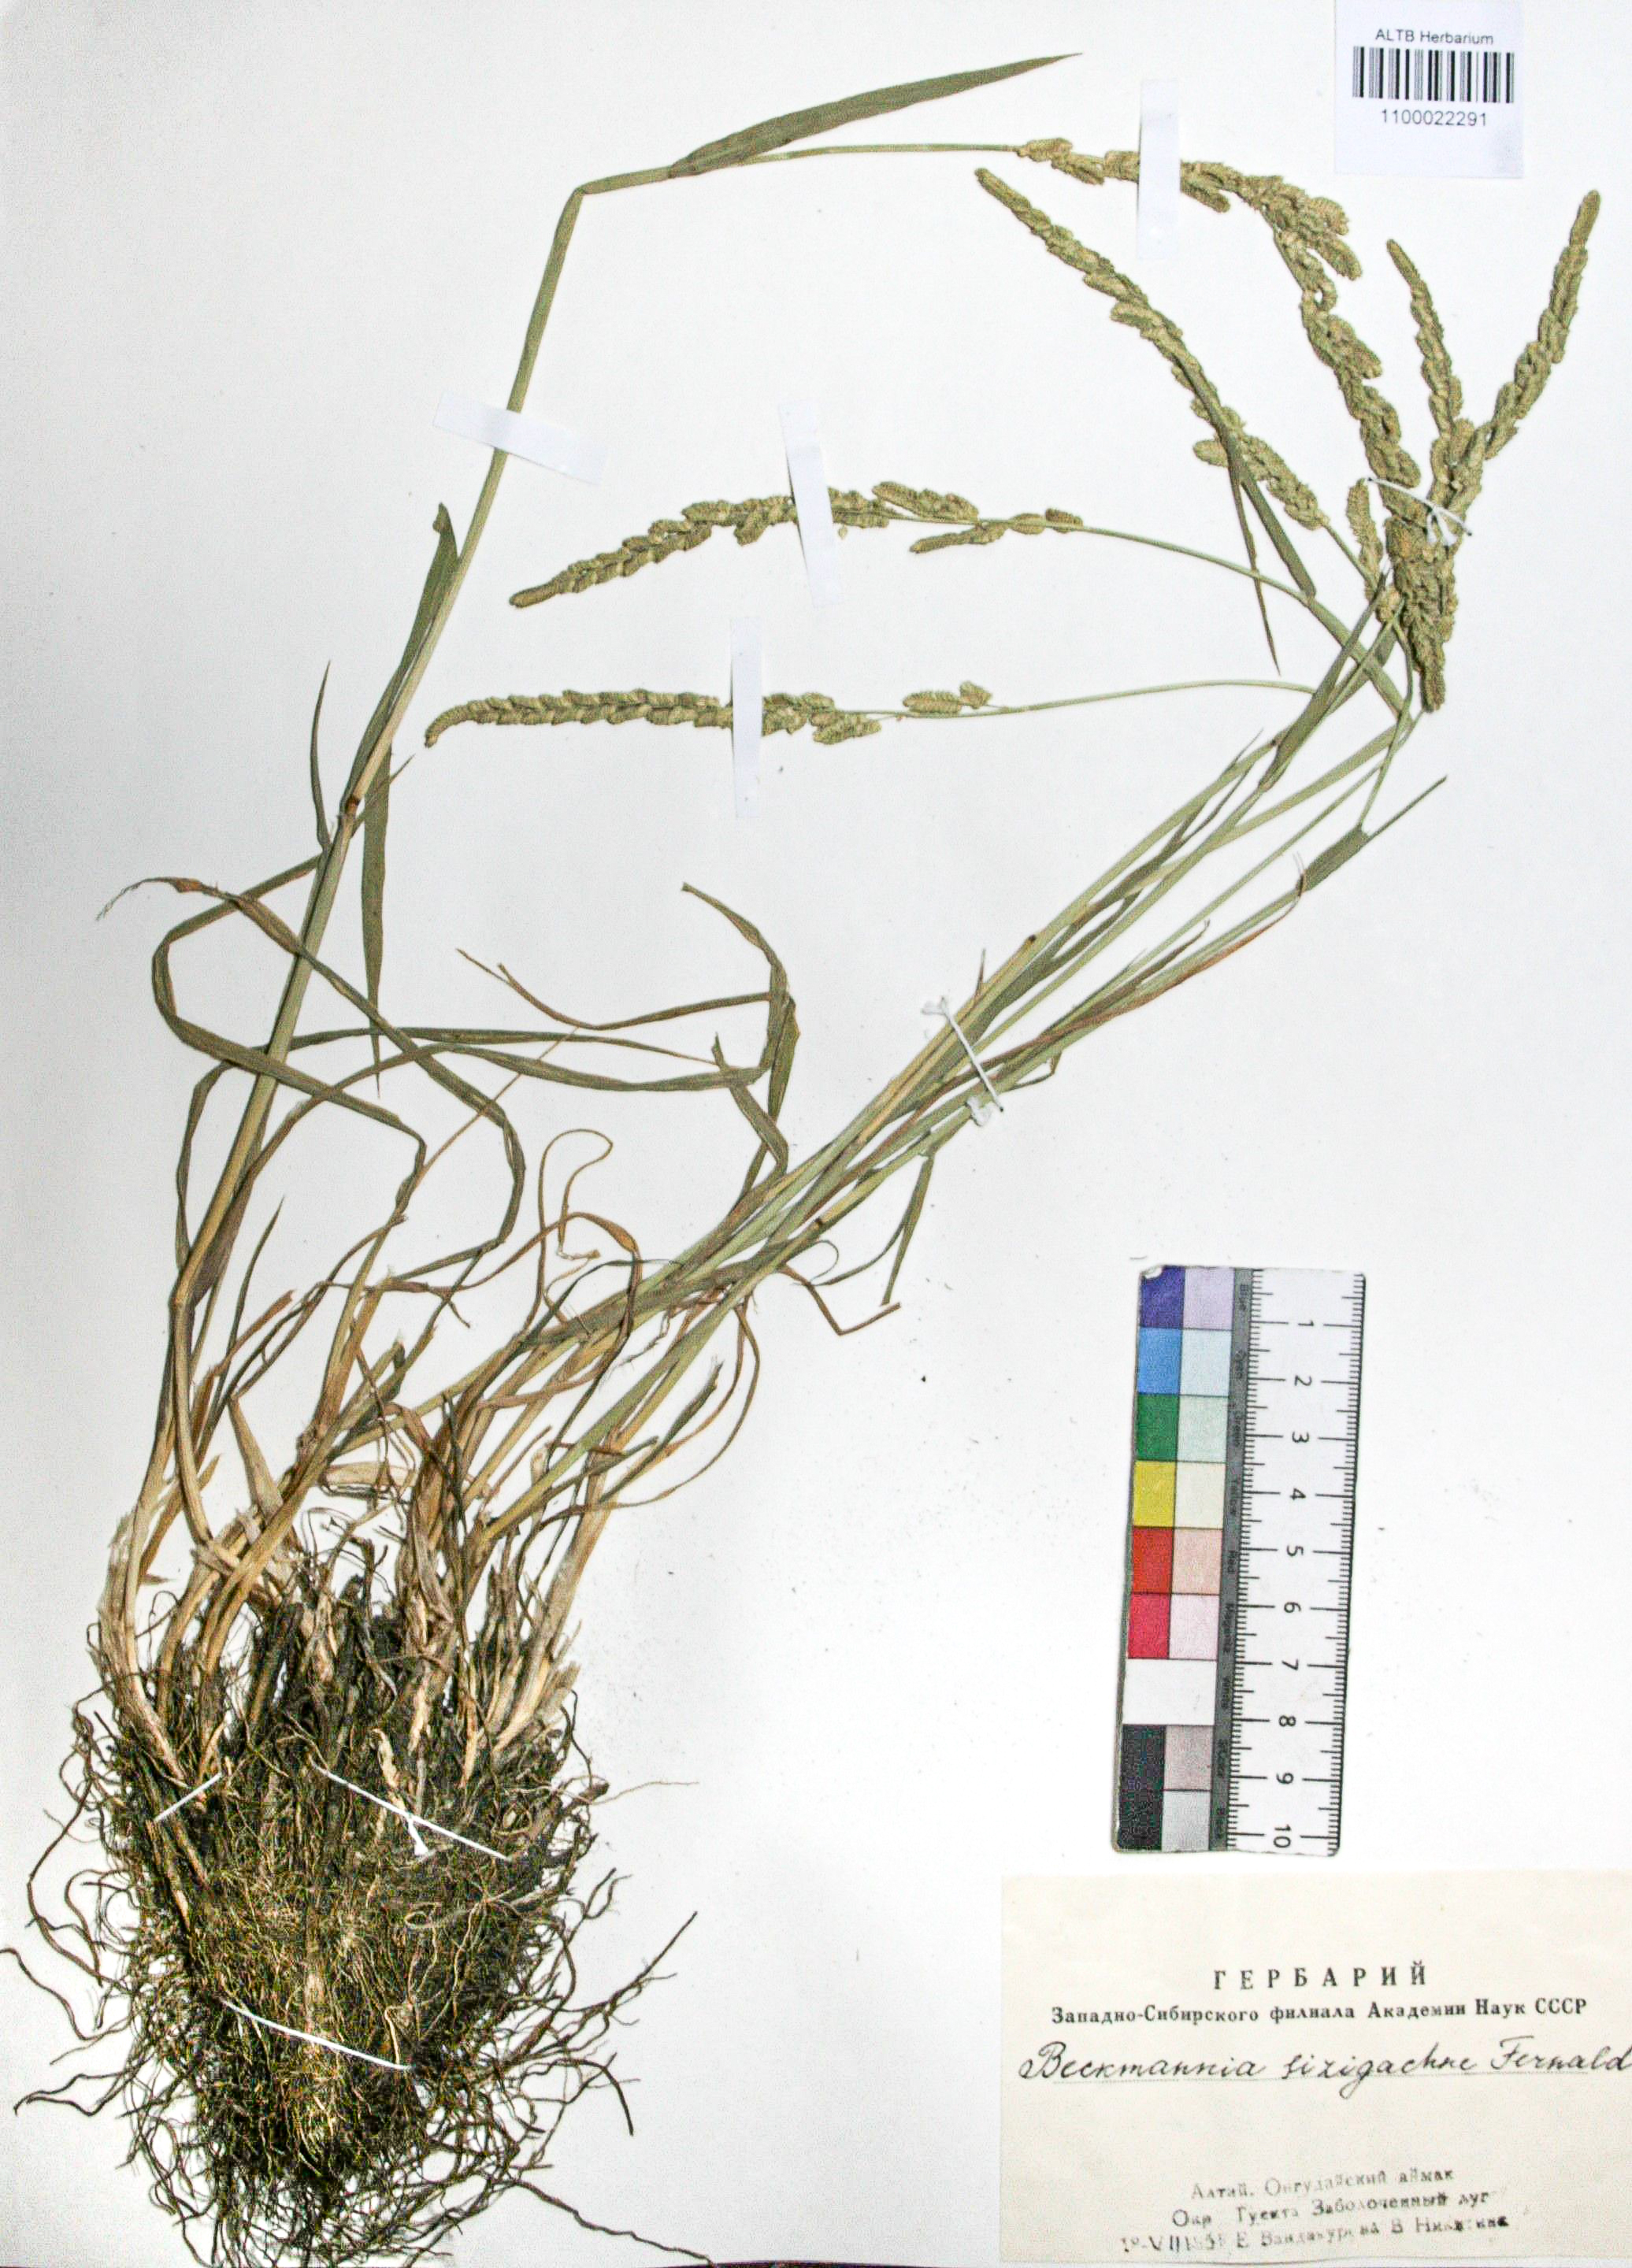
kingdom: Plantae
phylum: Tracheophyta
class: Liliopsida
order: Poales
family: Poaceae
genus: Beckmannia
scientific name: Beckmannia syzigachne
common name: American slough-grass
